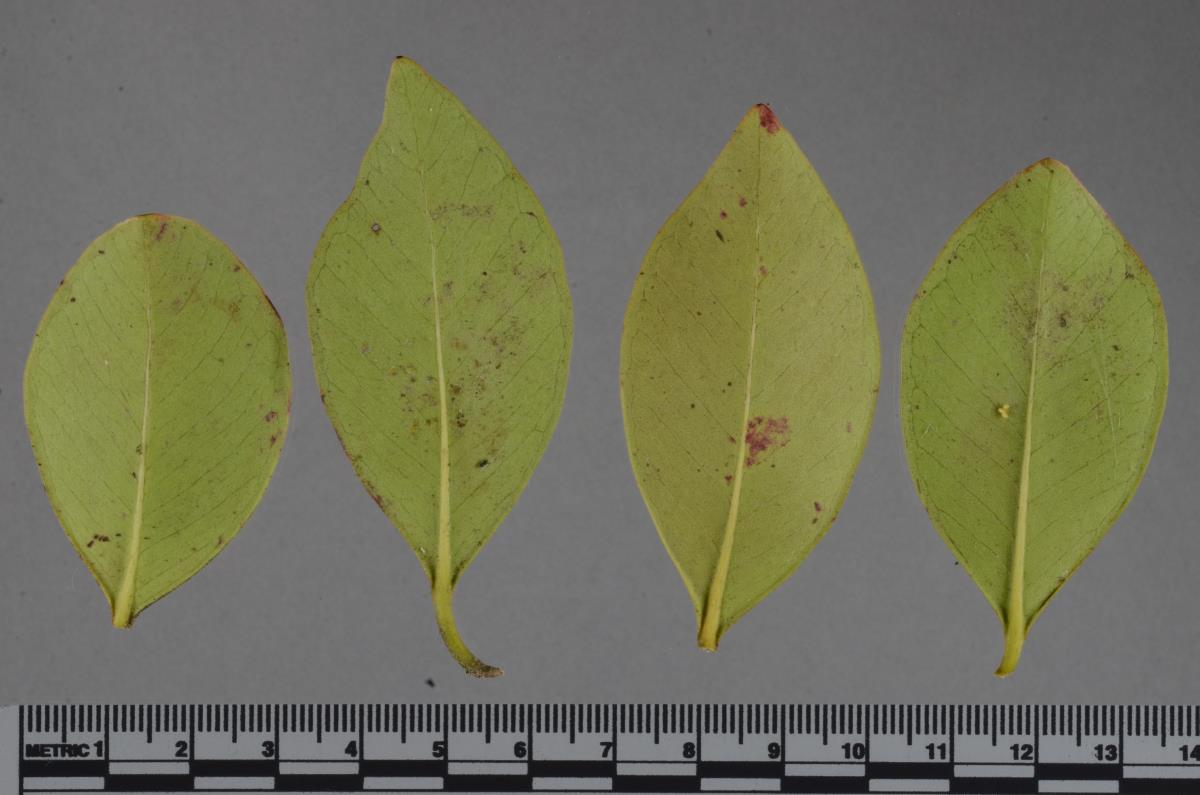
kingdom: Fungi
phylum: Ascomycota
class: Dothideomycetes
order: Mycosphaerellales
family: Mycosphaerellaceae
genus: Amycosphaerella
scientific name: Amycosphaerella africana
